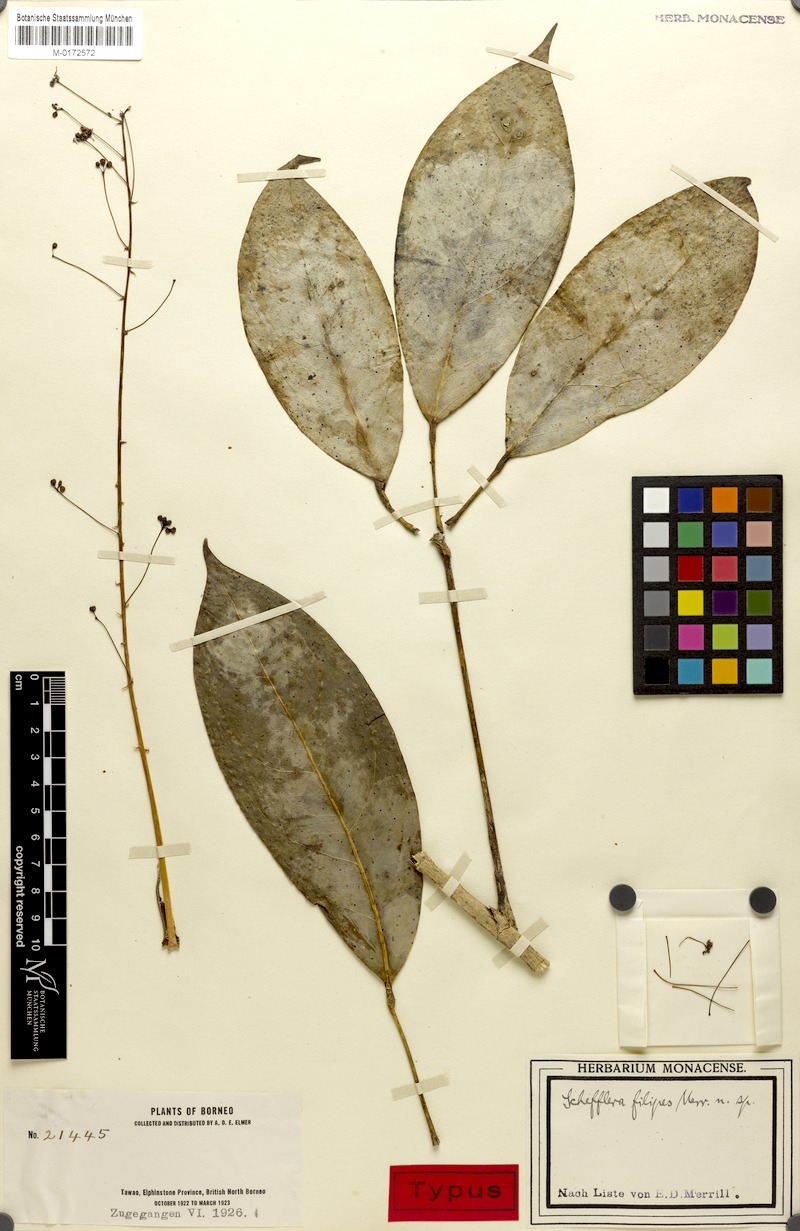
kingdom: Plantae
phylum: Tracheophyta
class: Magnoliopsida
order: Apiales
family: Araliaceae
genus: Heptapleurum
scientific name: Heptapleurum filipes
